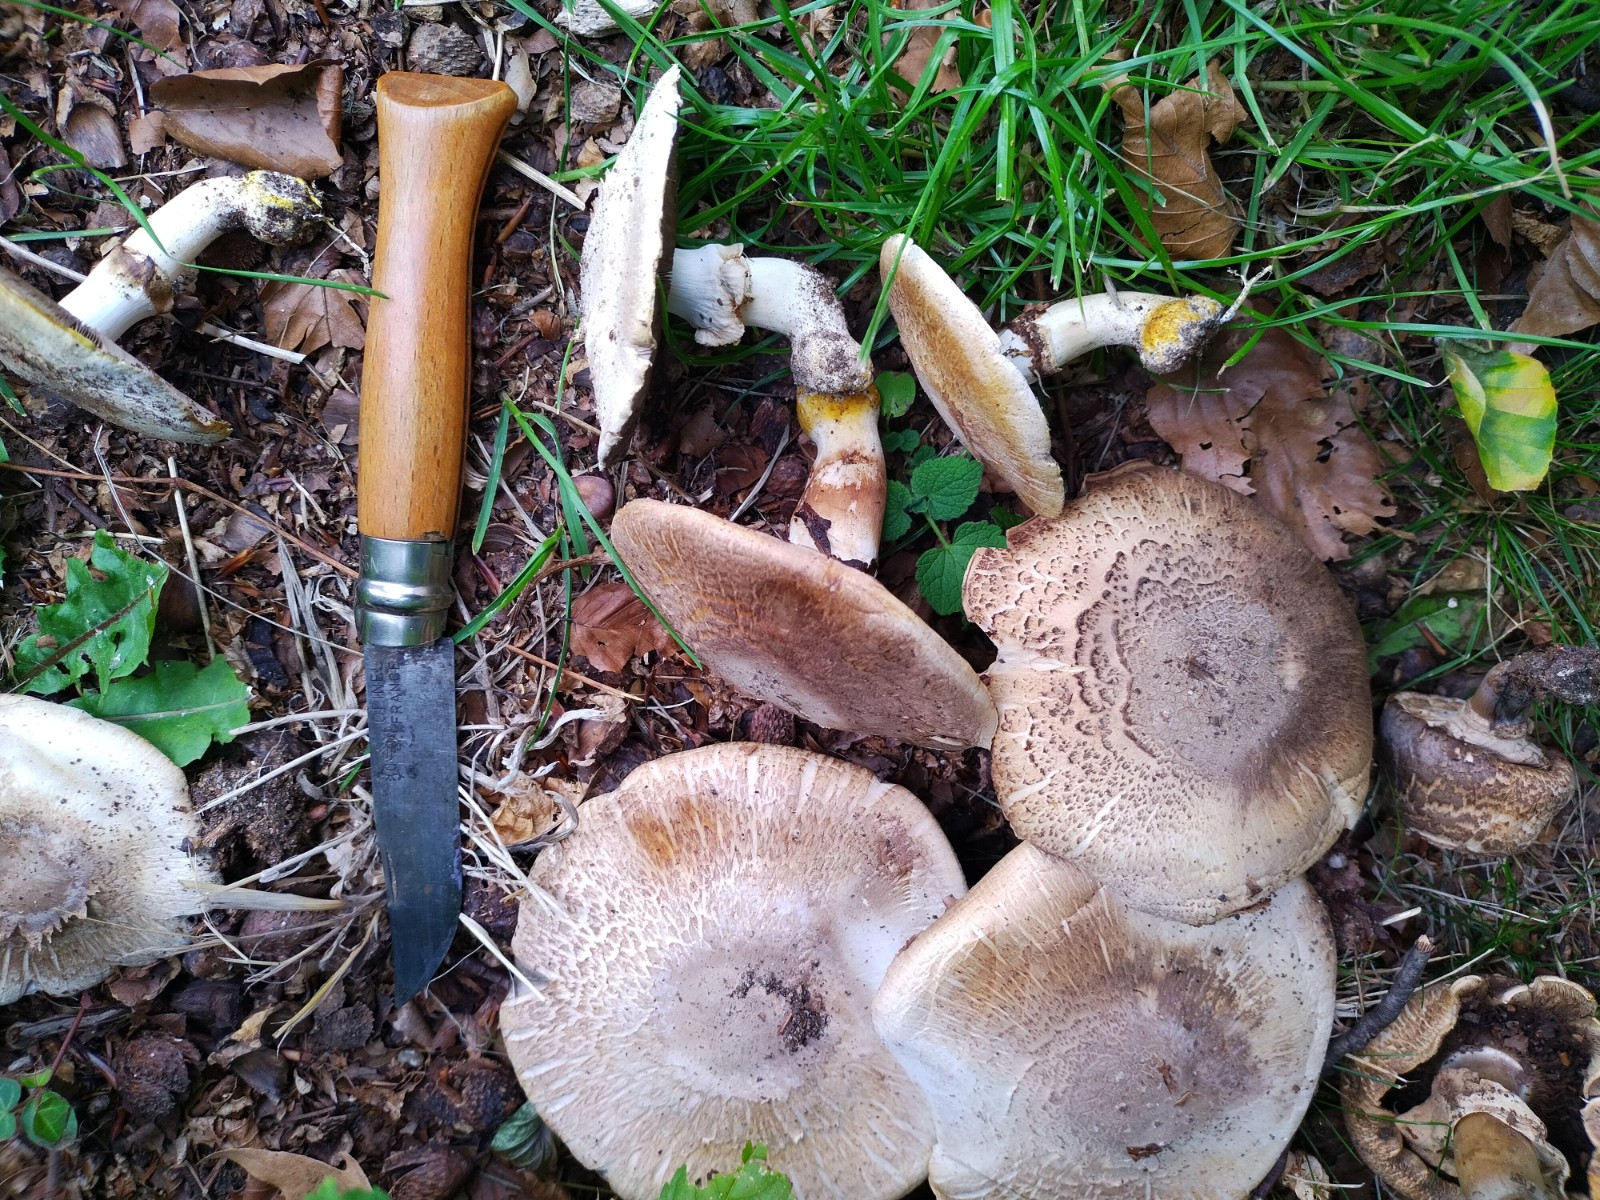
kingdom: Fungi
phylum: Basidiomycota
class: Agaricomycetes
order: Agaricales
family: Agaricaceae
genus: Agaricus
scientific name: Agaricus xanthodermus
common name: karbol-champignon
